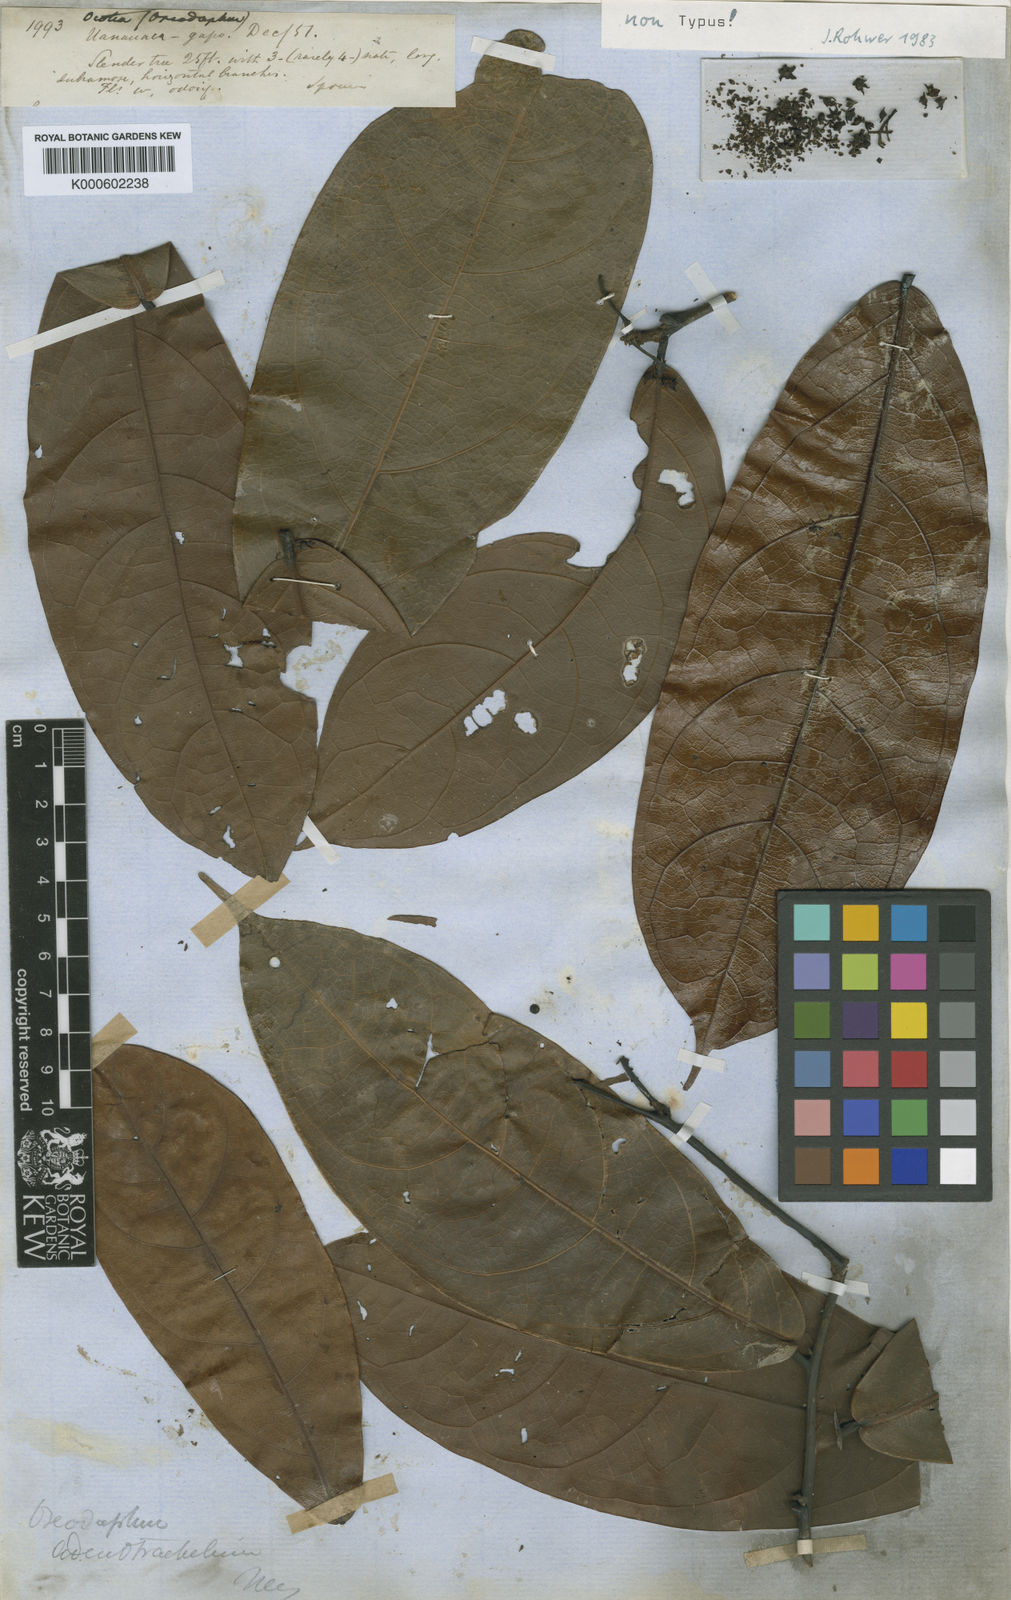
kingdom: Plantae
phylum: Tracheophyta
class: Magnoliopsida
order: Laurales
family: Lauraceae
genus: Ocotea
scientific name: Ocotea adenotrachelium
